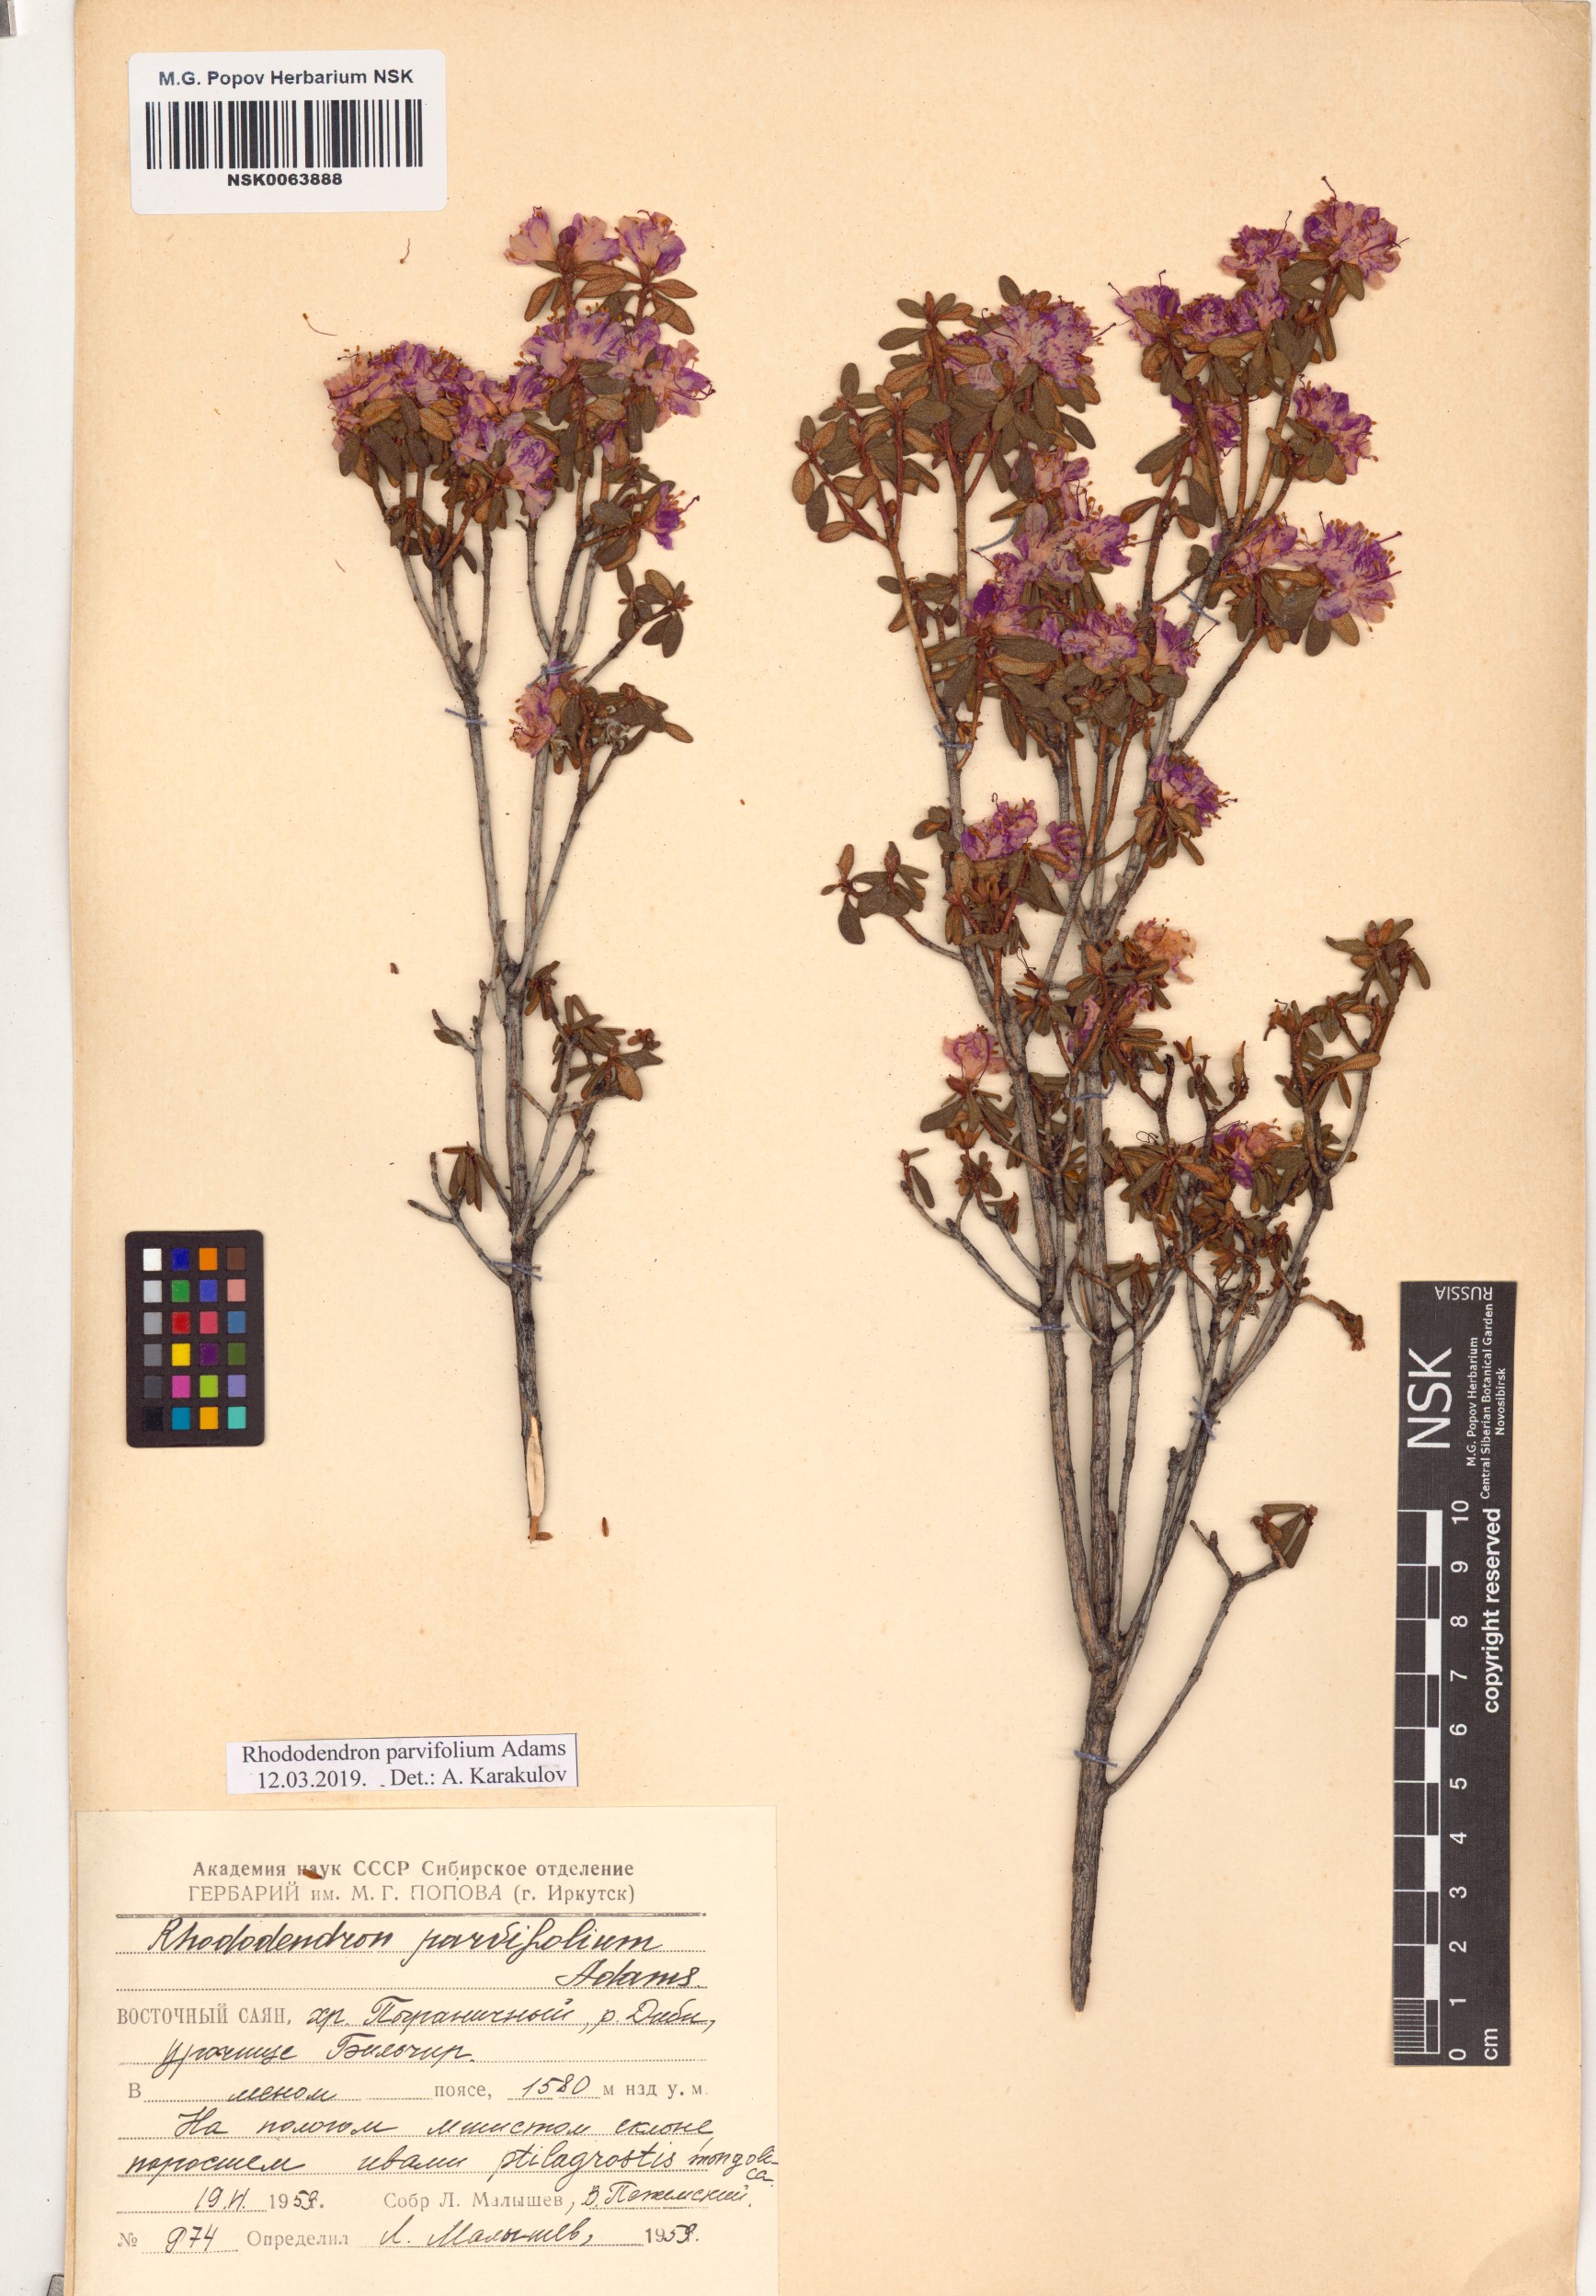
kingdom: Plantae
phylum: Tracheophyta
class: Magnoliopsida
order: Ericales
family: Ericaceae
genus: Rhododendron
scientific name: Rhododendron parvifolium
